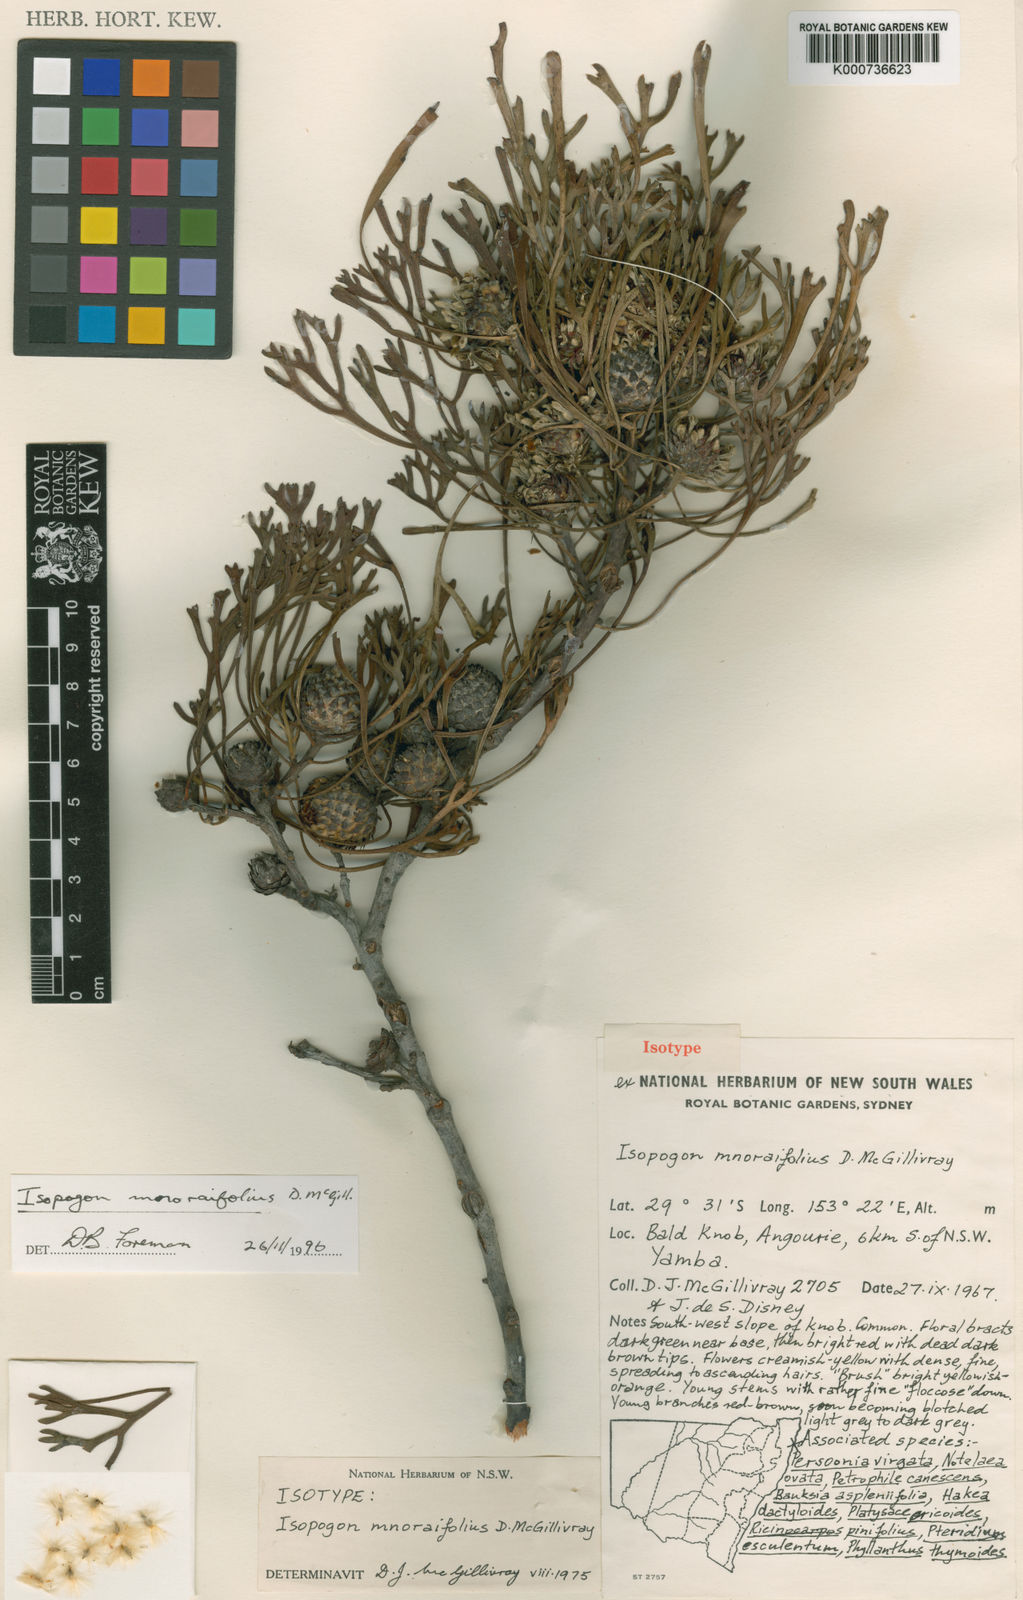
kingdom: Plantae
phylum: Tracheophyta
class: Magnoliopsida
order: Proteales
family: Proteaceae
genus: Isopogon
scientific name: Isopogon mnoraifolius
